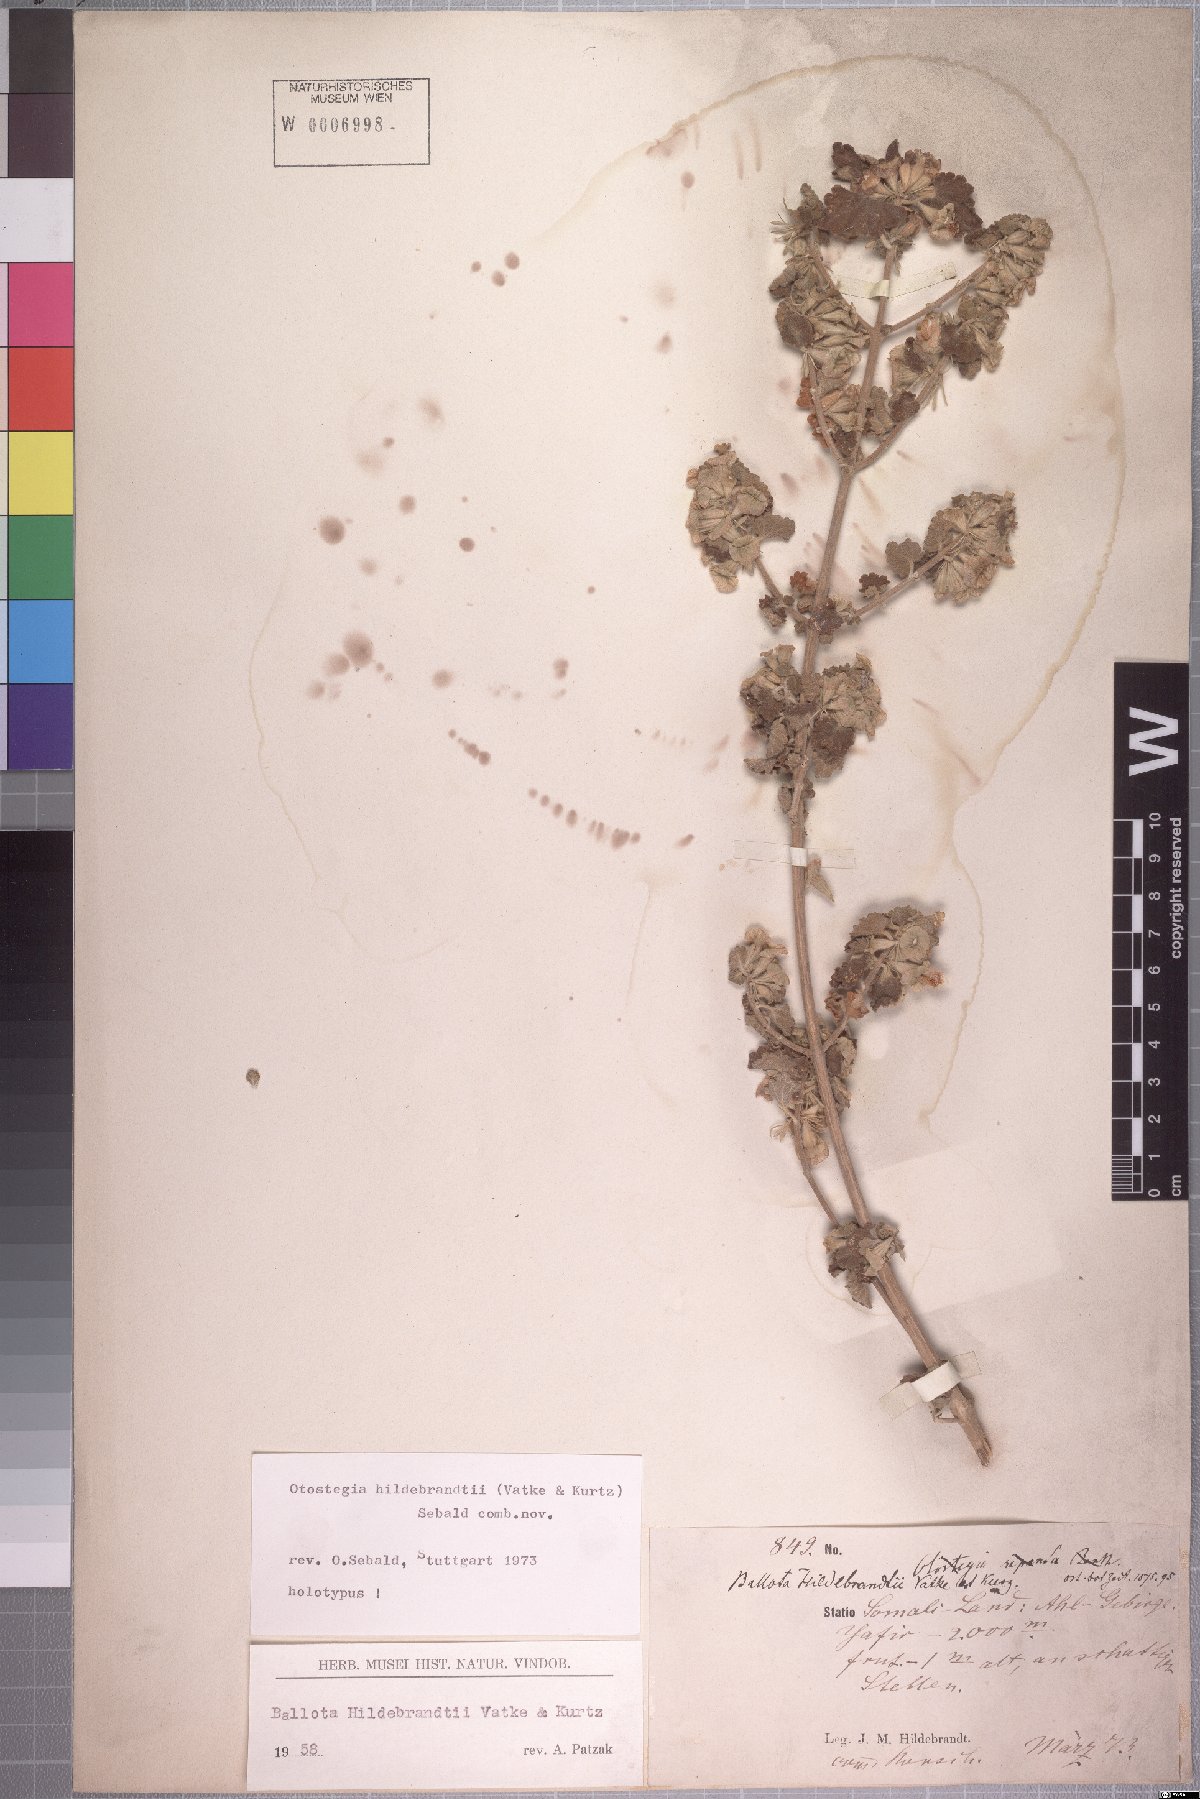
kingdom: Plantae
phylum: Tracheophyta
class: Magnoliopsida
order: Lamiales
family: Lamiaceae
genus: Otostegia
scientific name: Otostegia hildebrandtii
